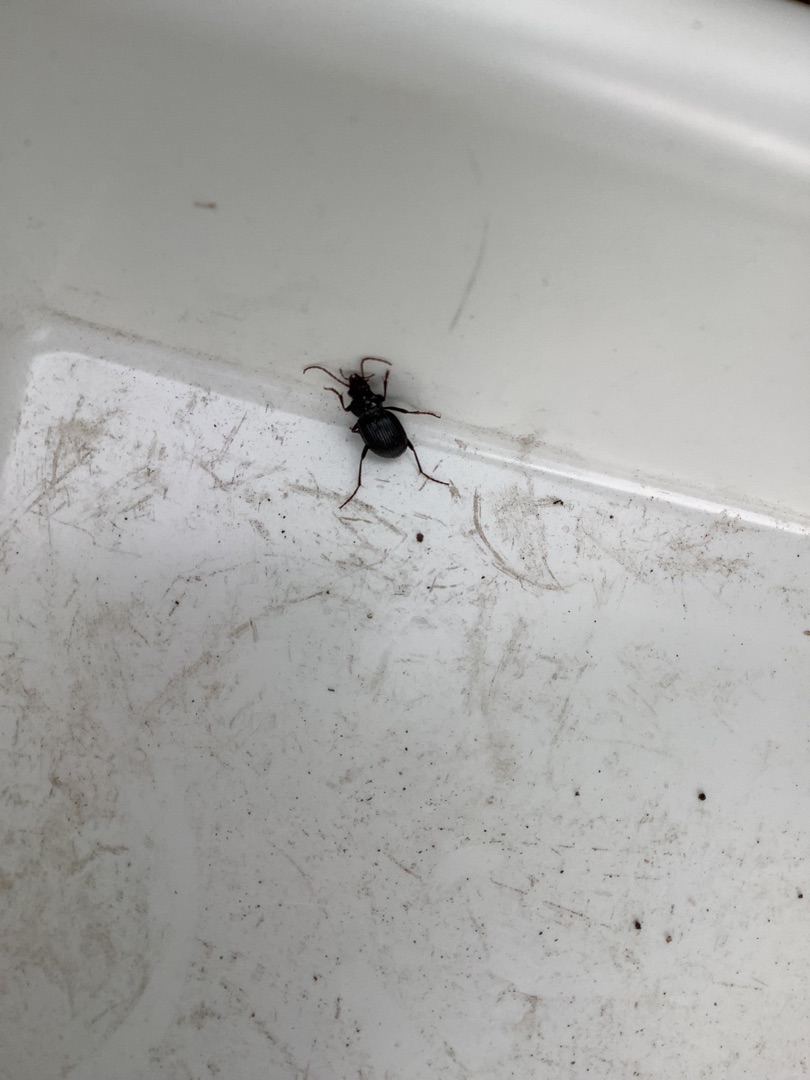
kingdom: Animalia
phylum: Arthropoda
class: Insecta
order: Coleoptera
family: Carabidae
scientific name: Carabidae
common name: Løbebiller
